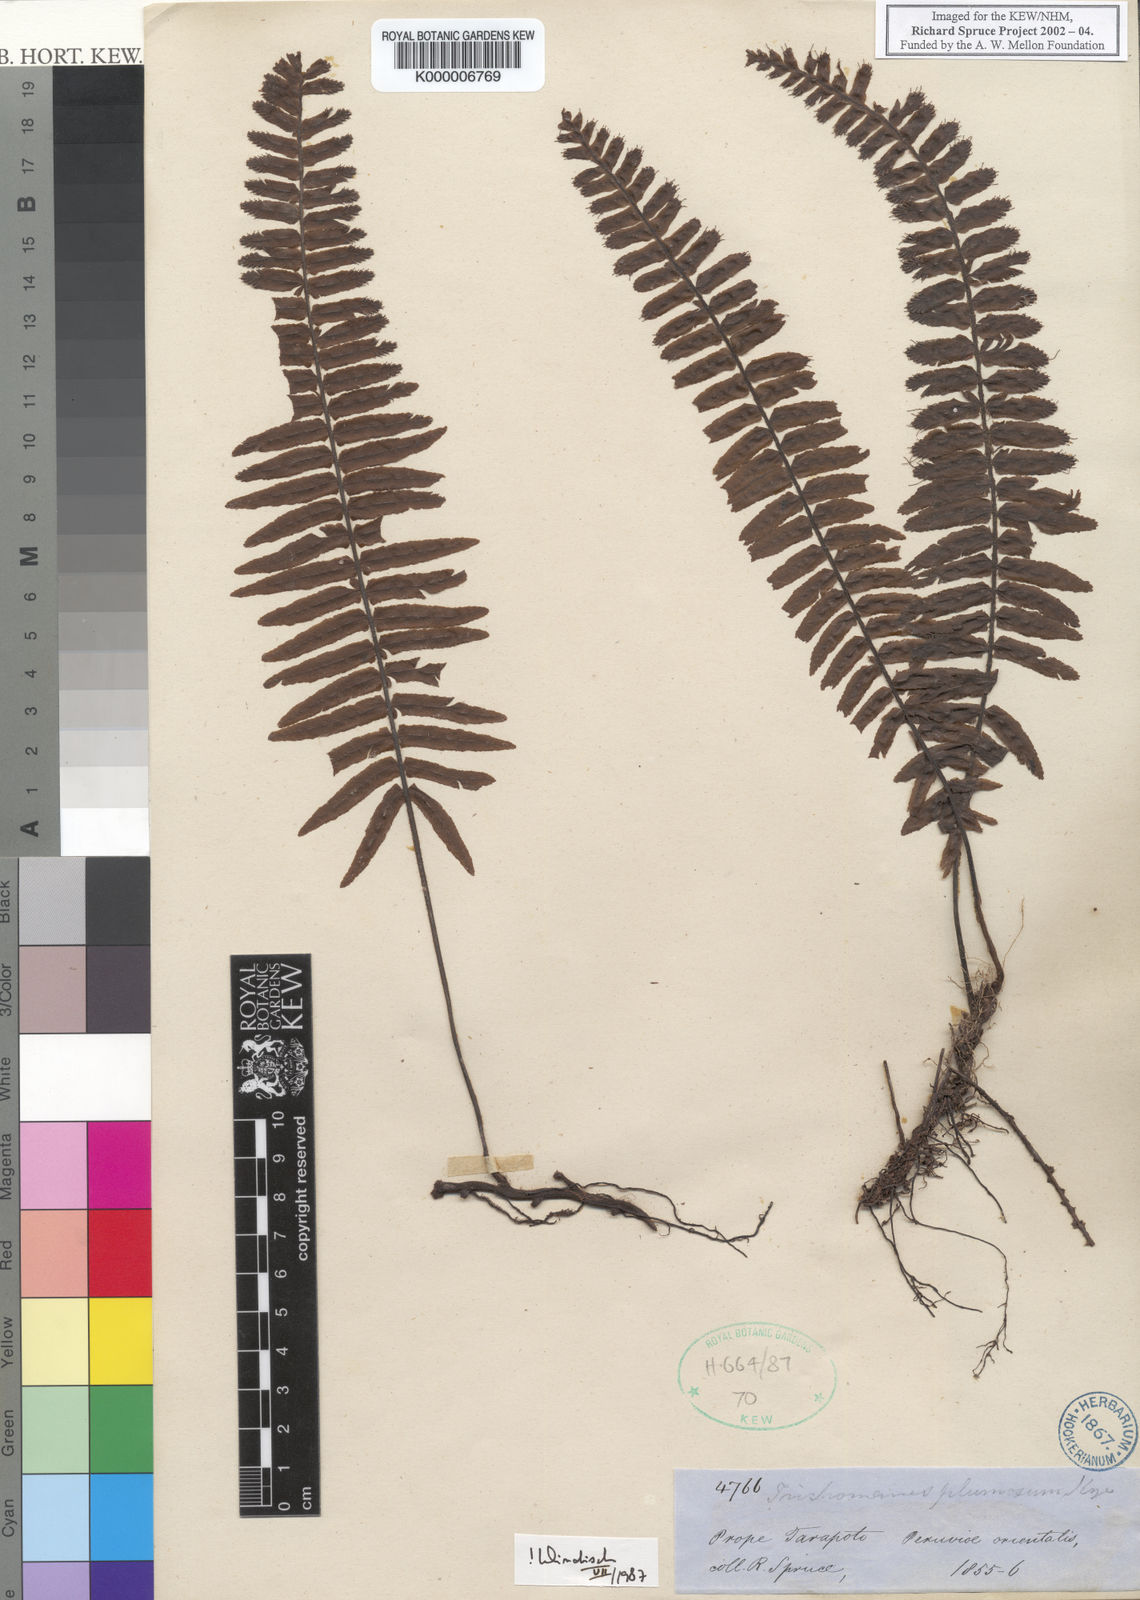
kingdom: Plantae
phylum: Tracheophyta
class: Polypodiopsida
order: Hymenophyllales
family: Hymenophyllaceae
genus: Trichomanes
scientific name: Trichomanes plumosum
